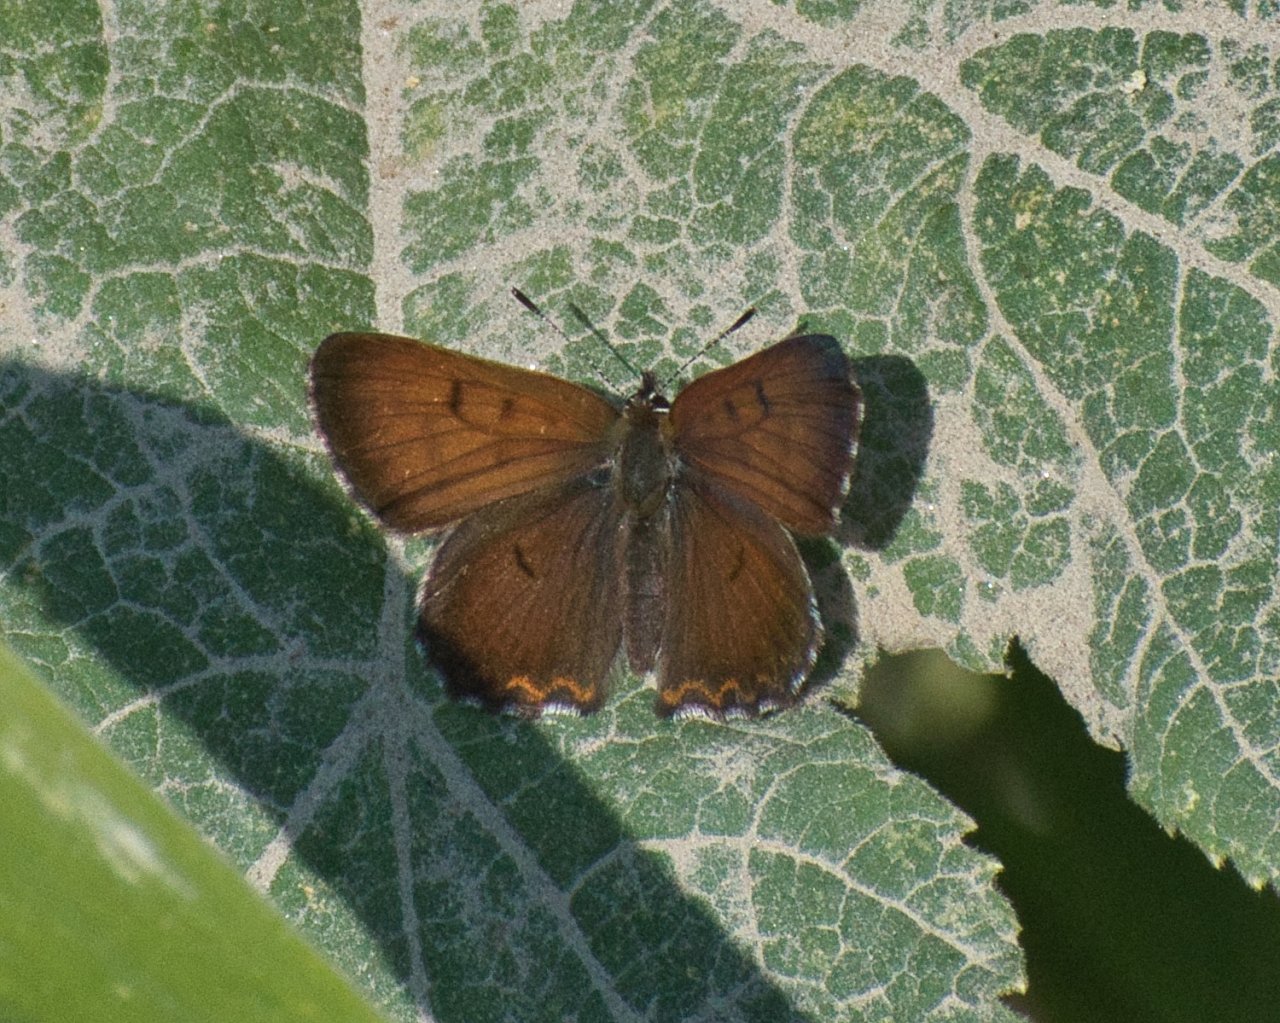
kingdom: Animalia
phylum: Arthropoda
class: Insecta
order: Lepidoptera
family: Lycaenidae
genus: Lycaena
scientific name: Lycaena mariposa
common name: Mariposa Copper
